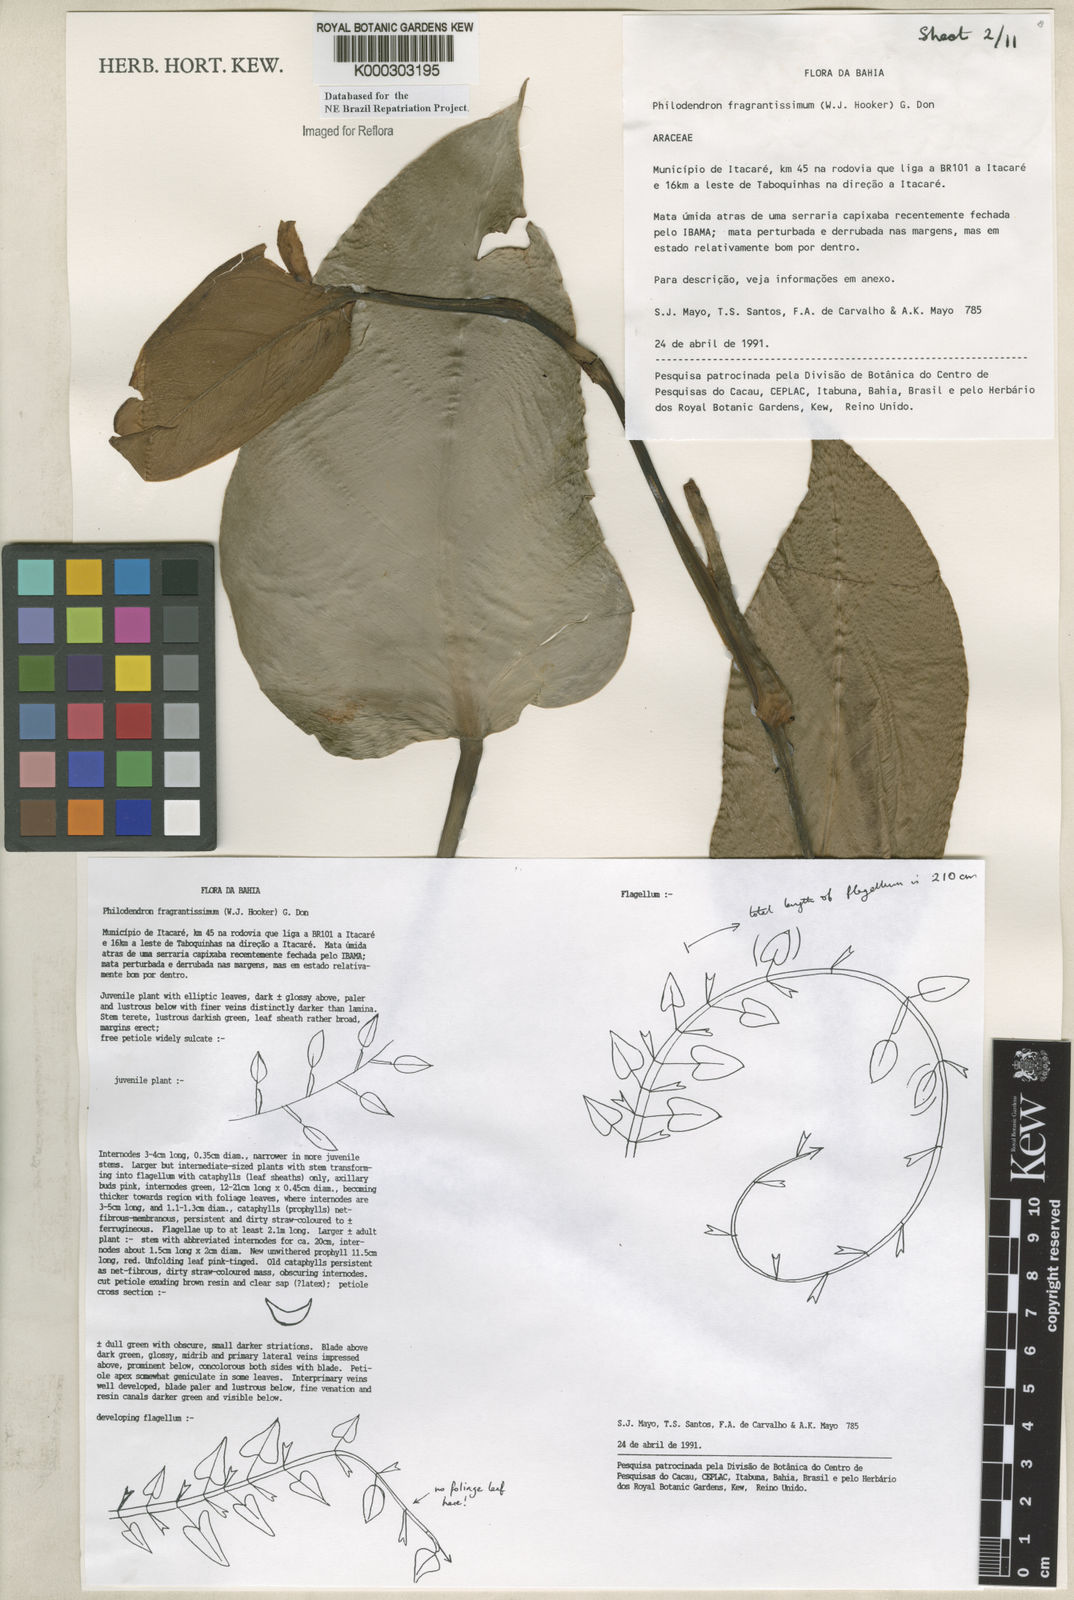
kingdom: Plantae
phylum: Tracheophyta
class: Liliopsida
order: Alismatales
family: Araceae
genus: Philodendron
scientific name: Philodendron fragrantissimum
